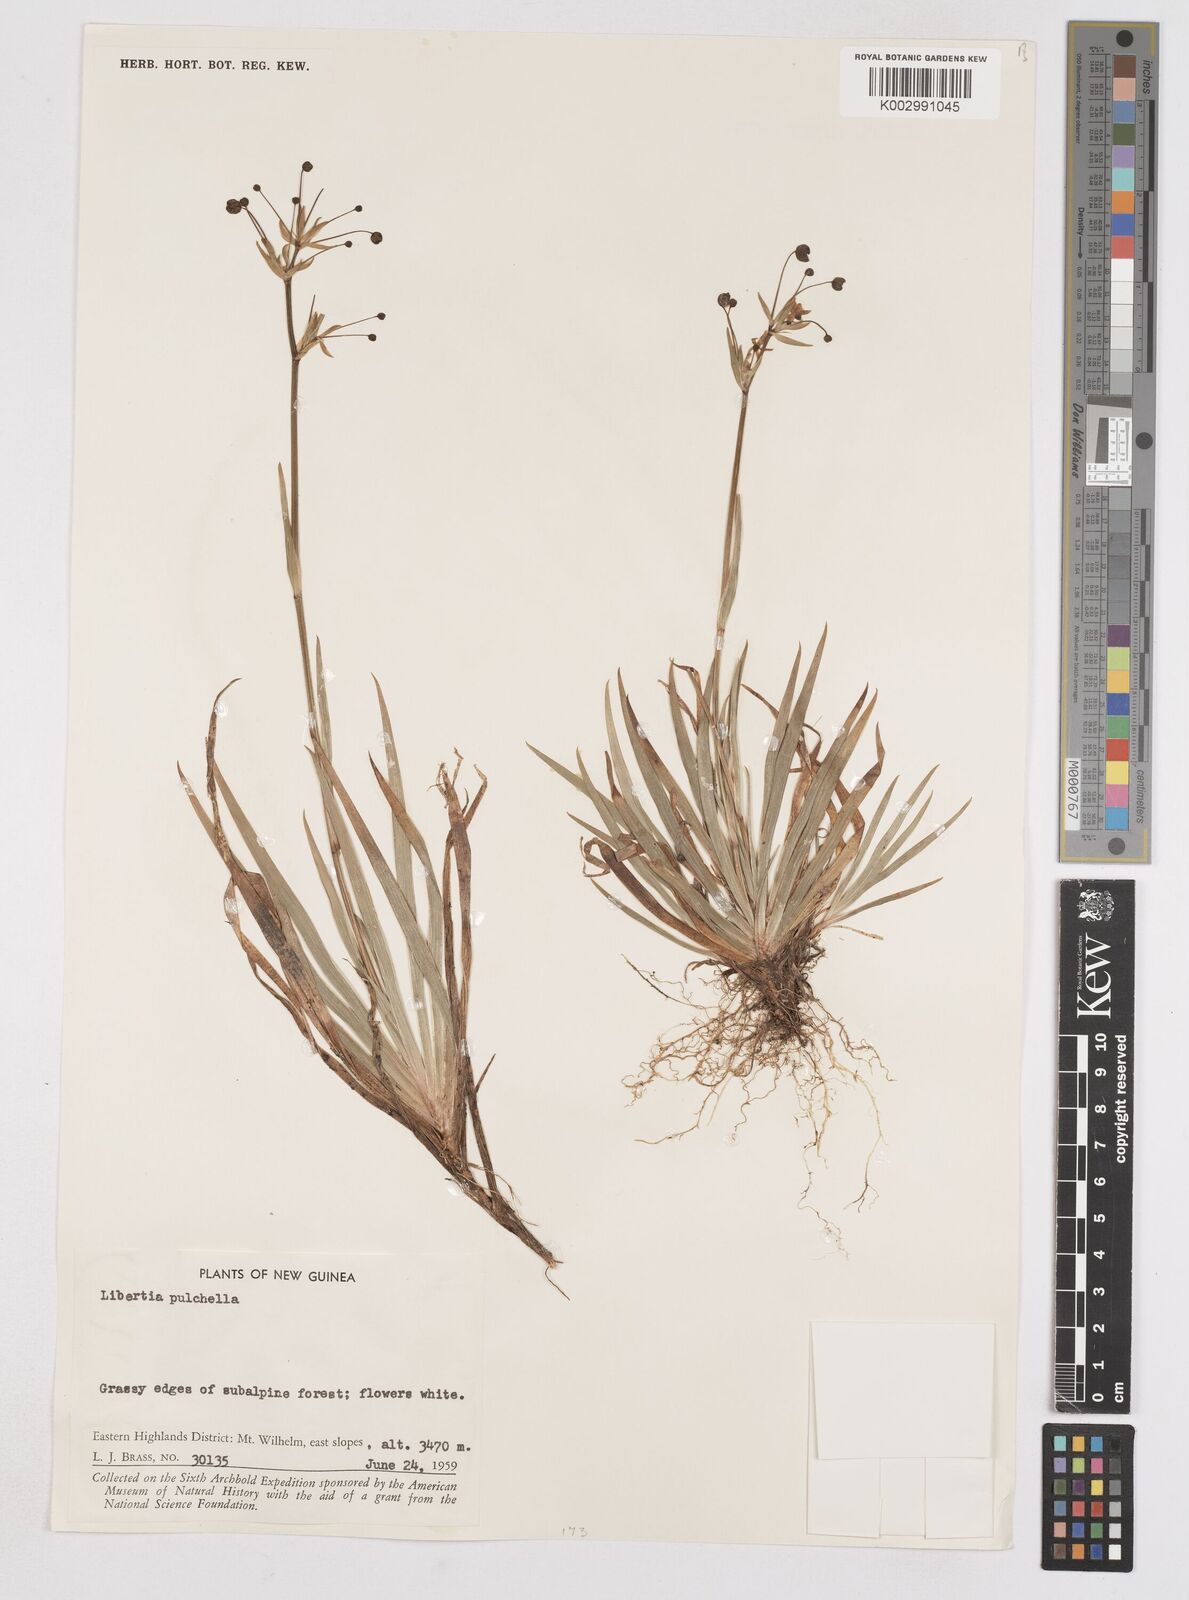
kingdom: Plantae
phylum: Tracheophyta
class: Liliopsida
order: Asparagales
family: Iridaceae
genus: Libertia
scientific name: Libertia pulchella
